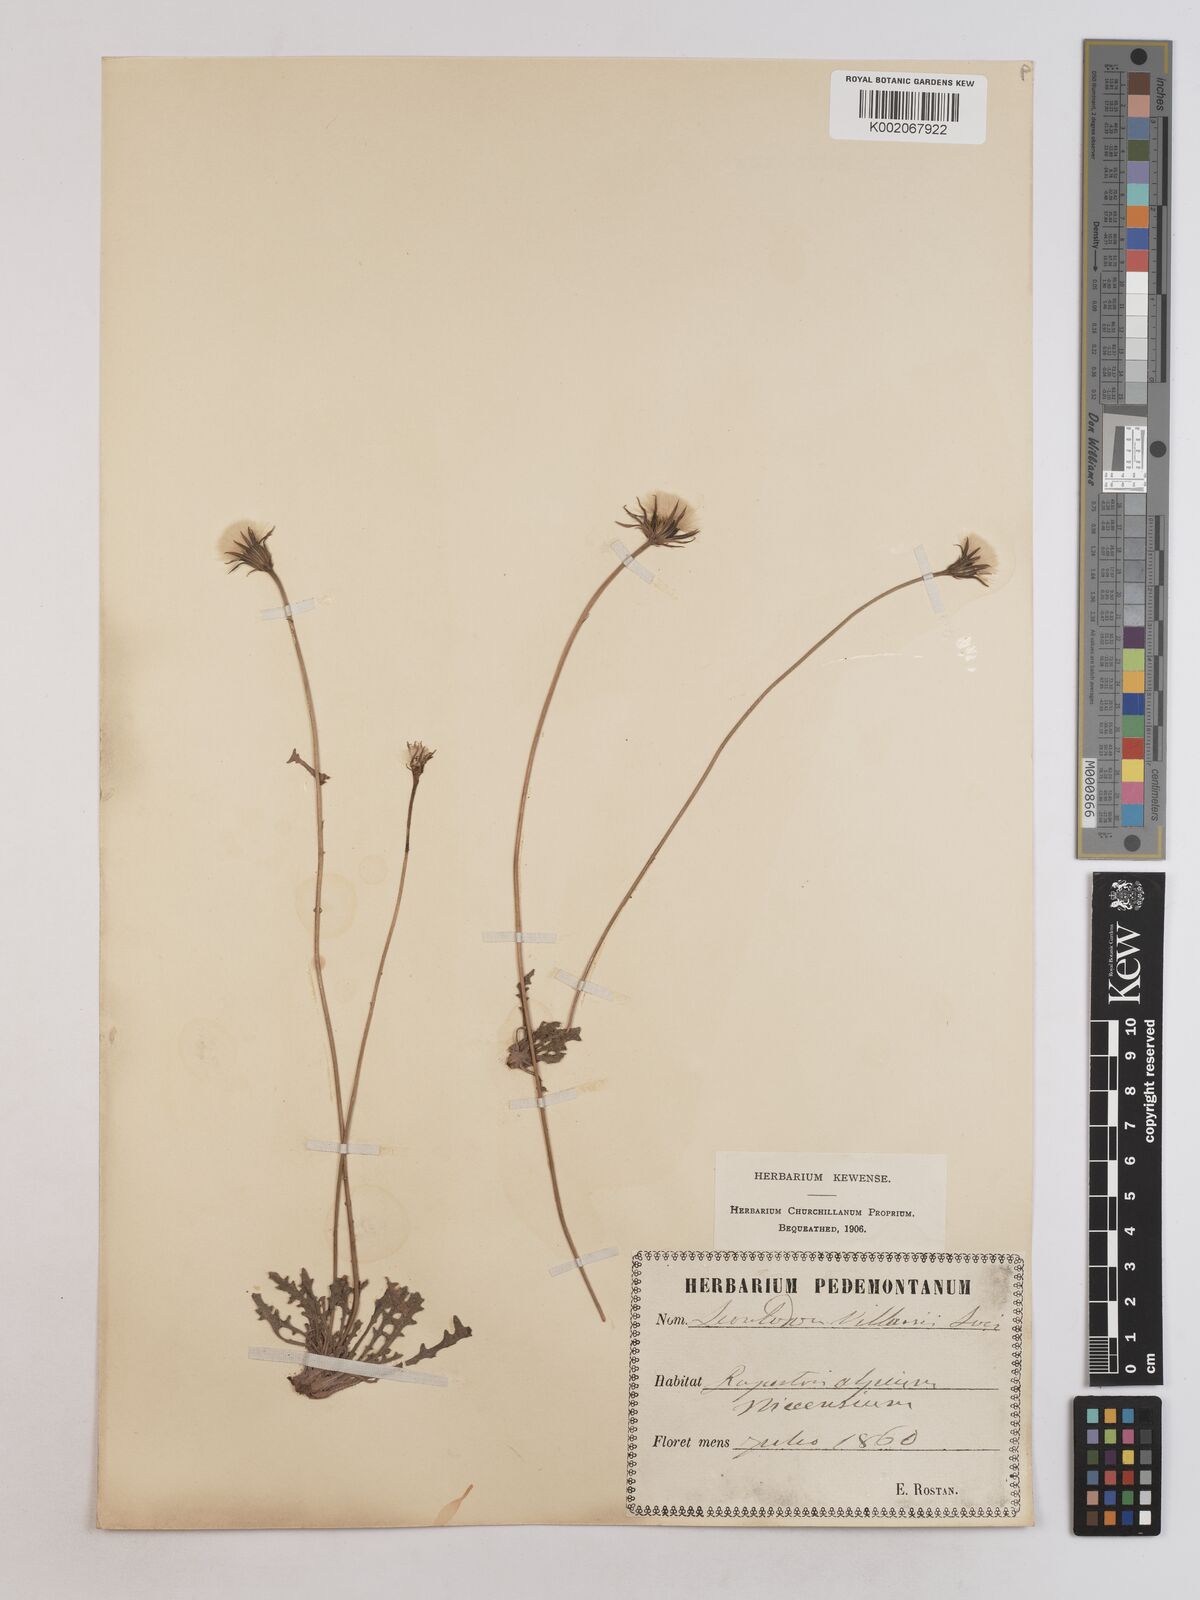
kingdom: Plantae
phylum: Tracheophyta
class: Magnoliopsida
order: Asterales
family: Asteraceae
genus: Leontodon
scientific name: Leontodon hirtus
